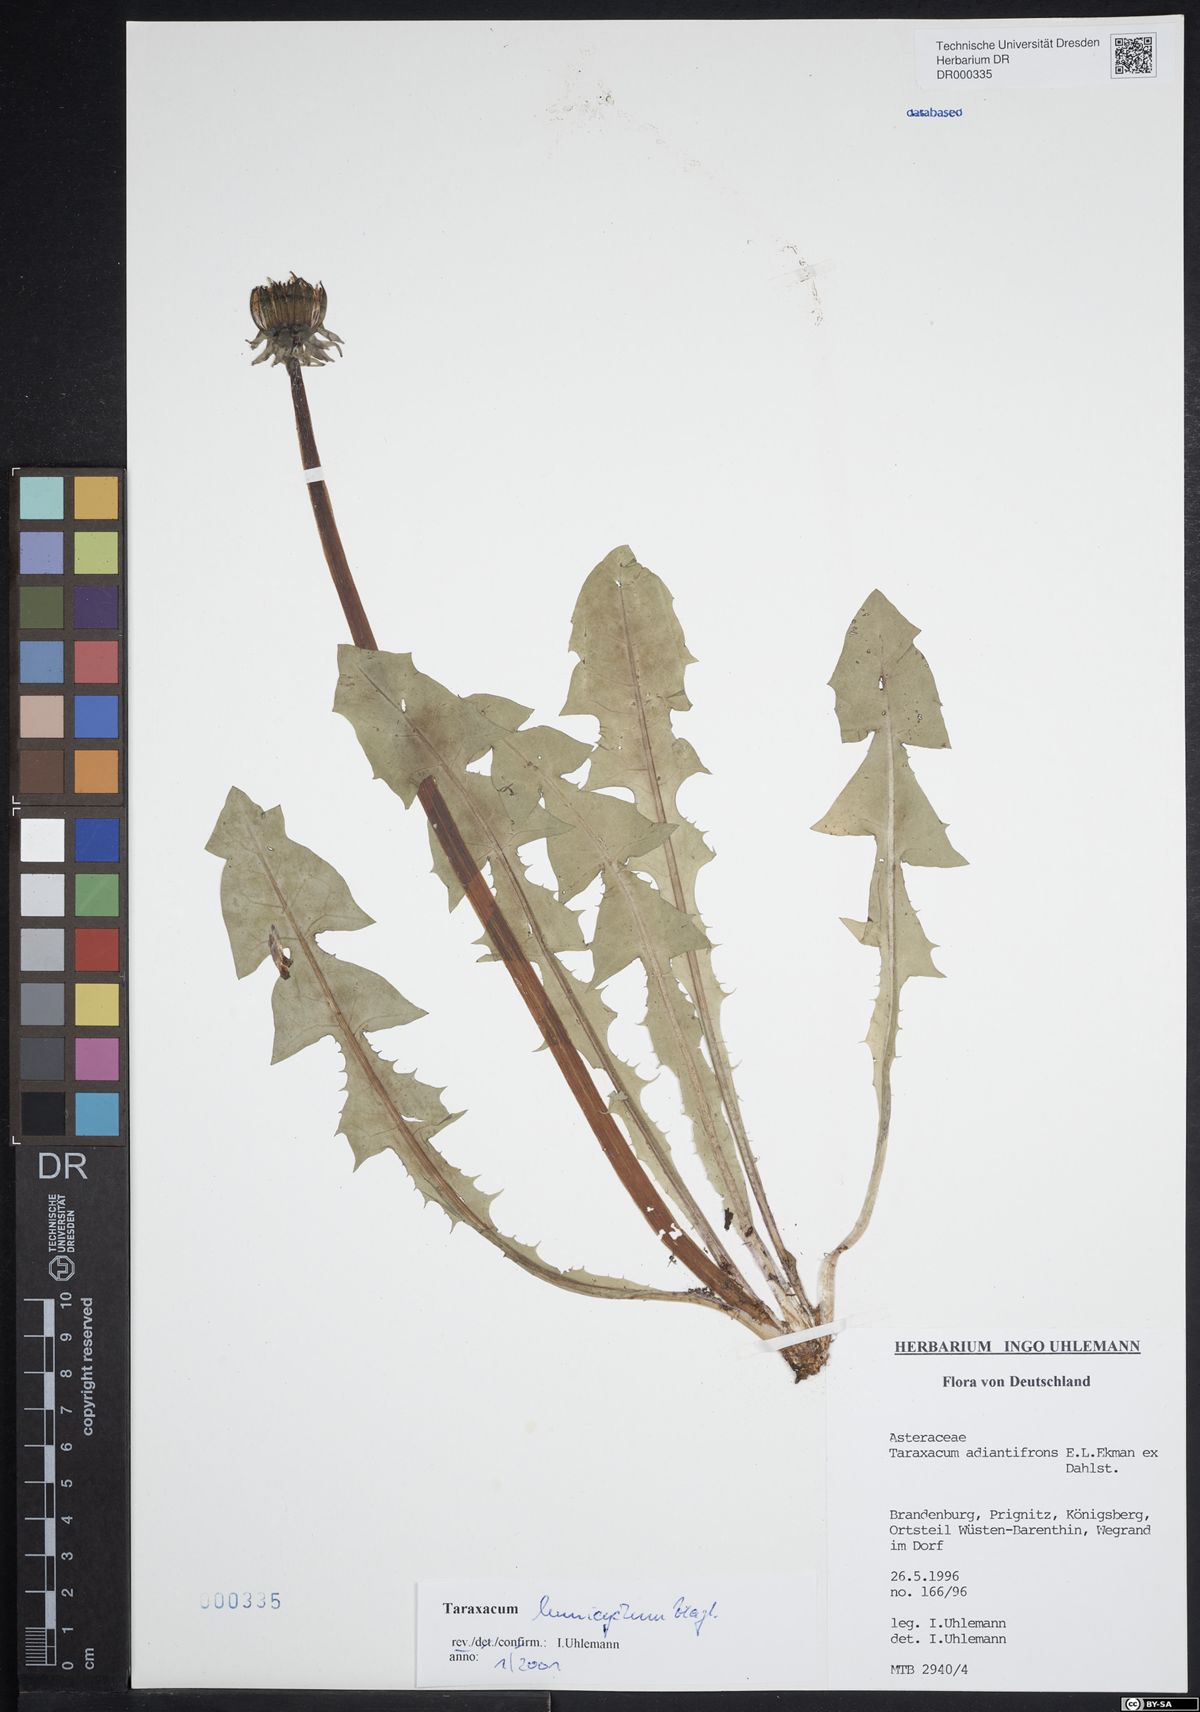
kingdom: Plantae
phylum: Tracheophyta
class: Magnoliopsida
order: Asterales
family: Asteraceae
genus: Taraxacum
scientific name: Taraxacum adiantifrons
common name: Pretty-leaved dandelion
